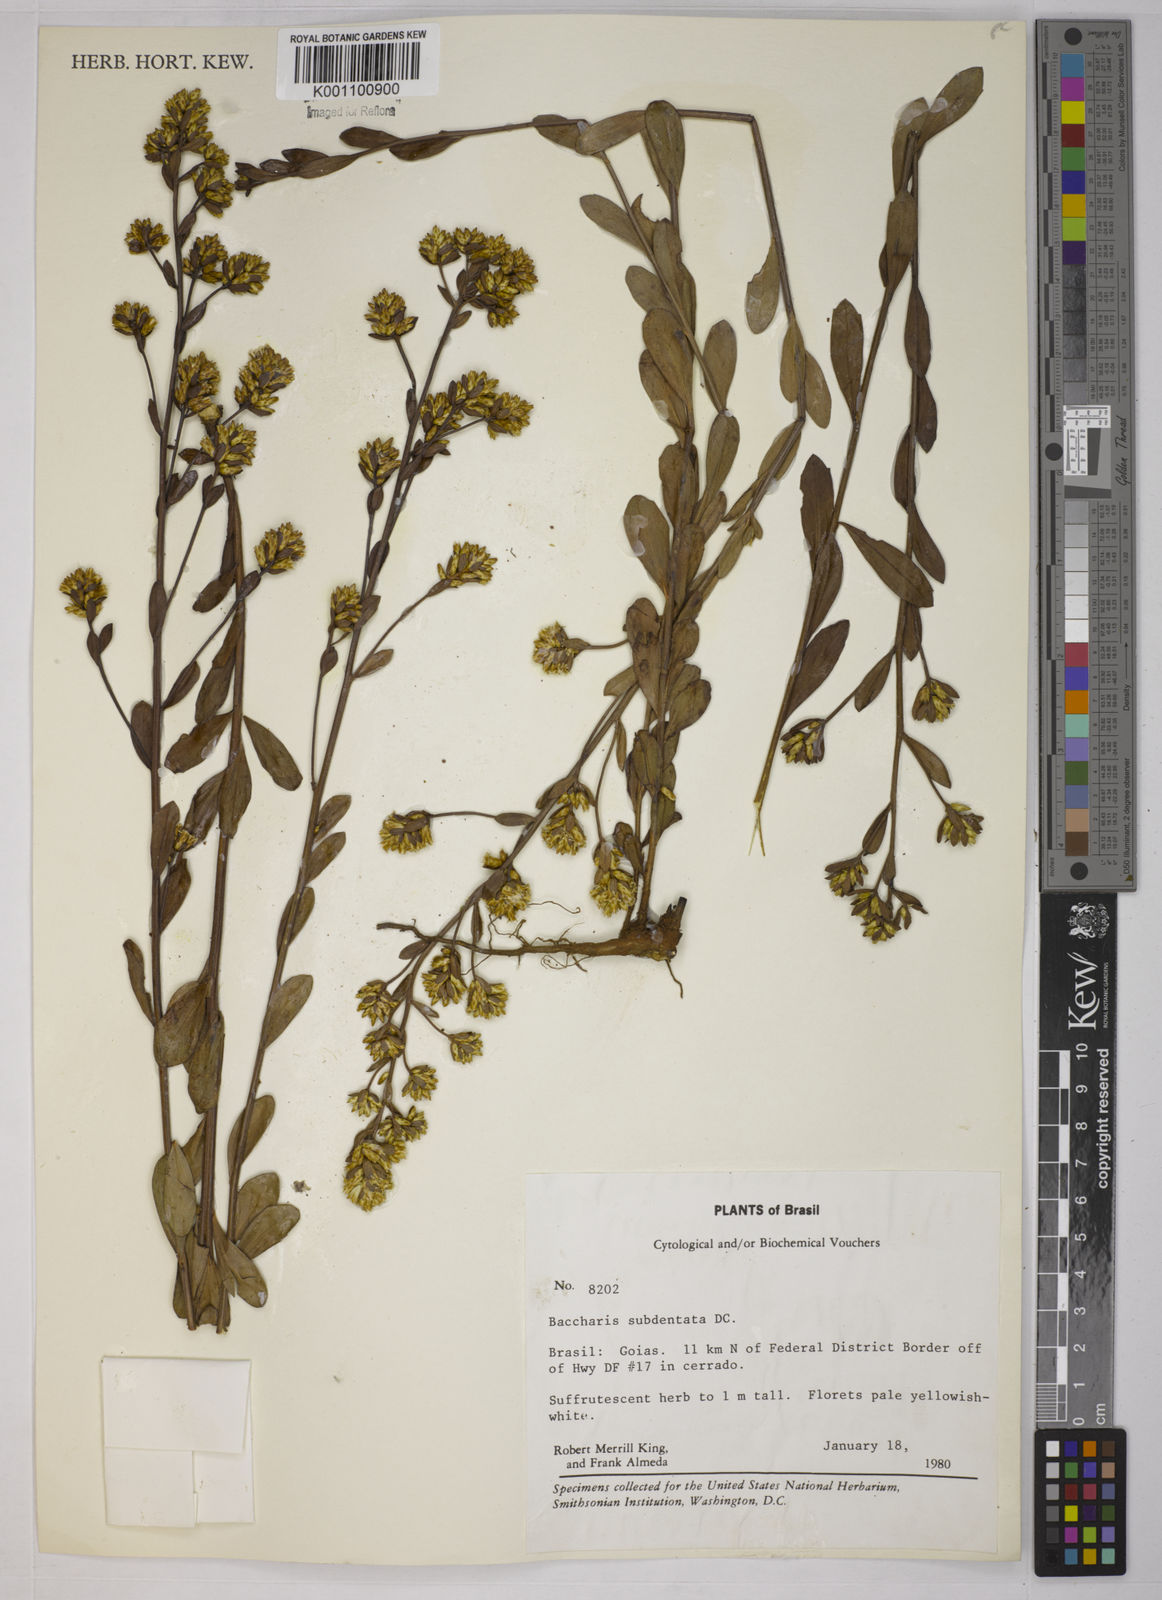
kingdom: Plantae
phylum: Tracheophyta
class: Magnoliopsida
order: Asterales
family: Asteraceae
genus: Baccharis
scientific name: Baccharis subdentata
